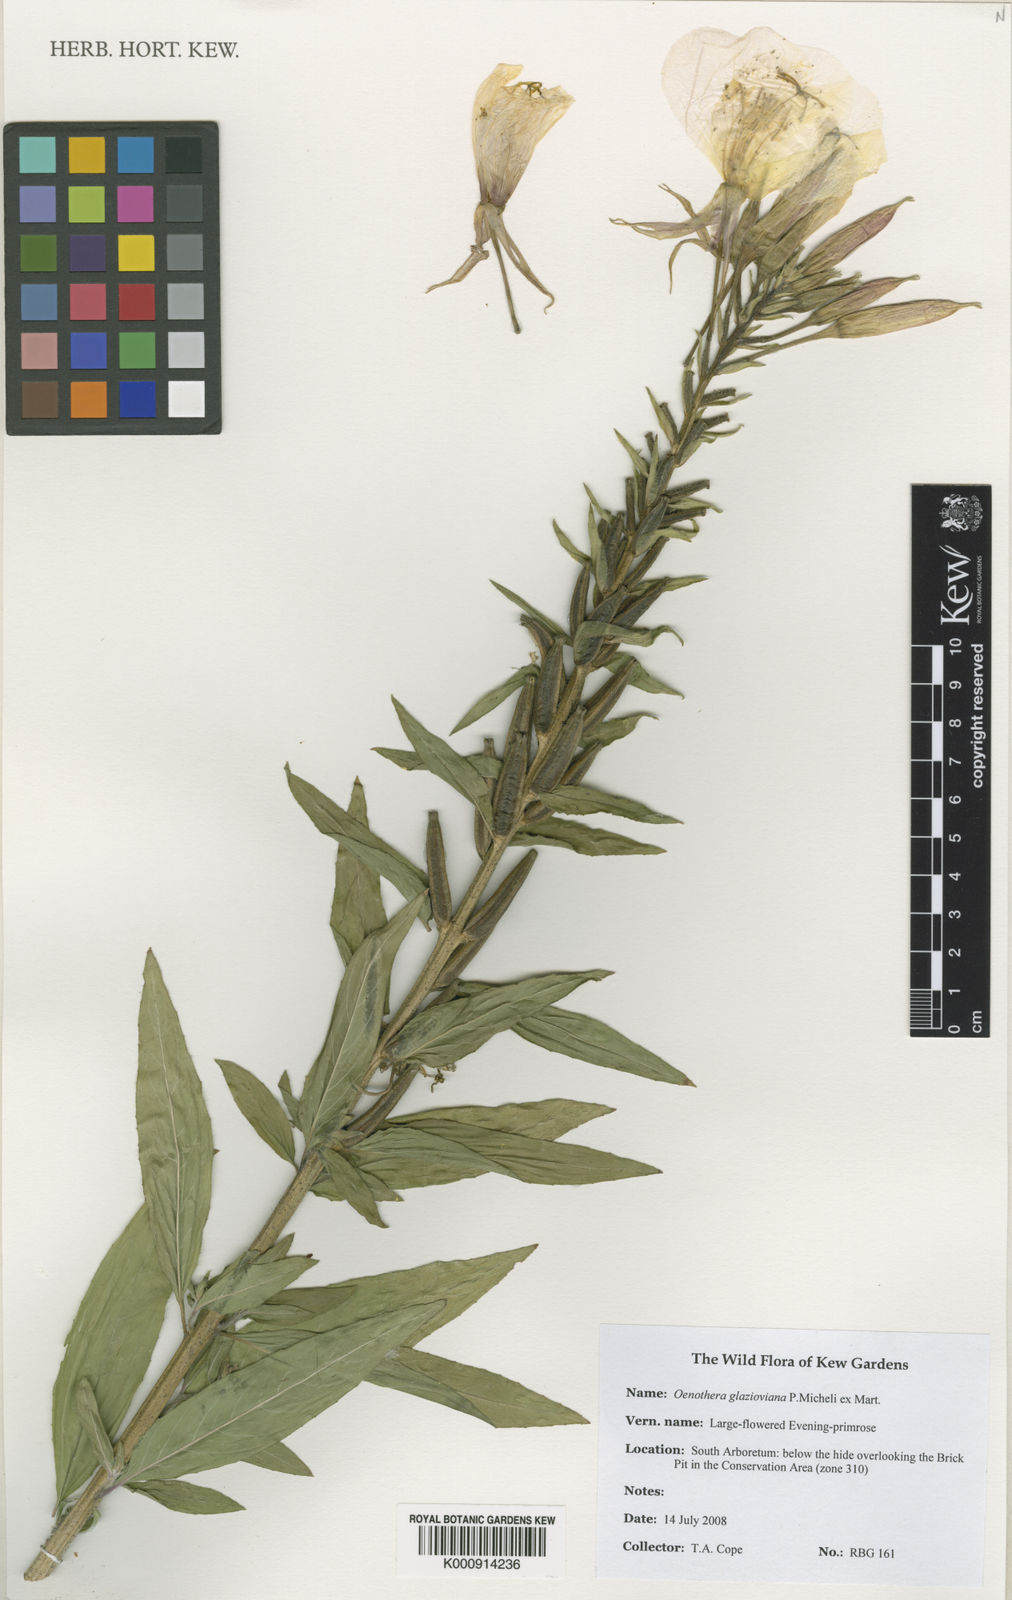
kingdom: Plantae
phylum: Tracheophyta
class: Magnoliopsida
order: Myrtales
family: Onagraceae
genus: Oenothera
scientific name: Oenothera glazioviana
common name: Large-flowered evening-primrose
